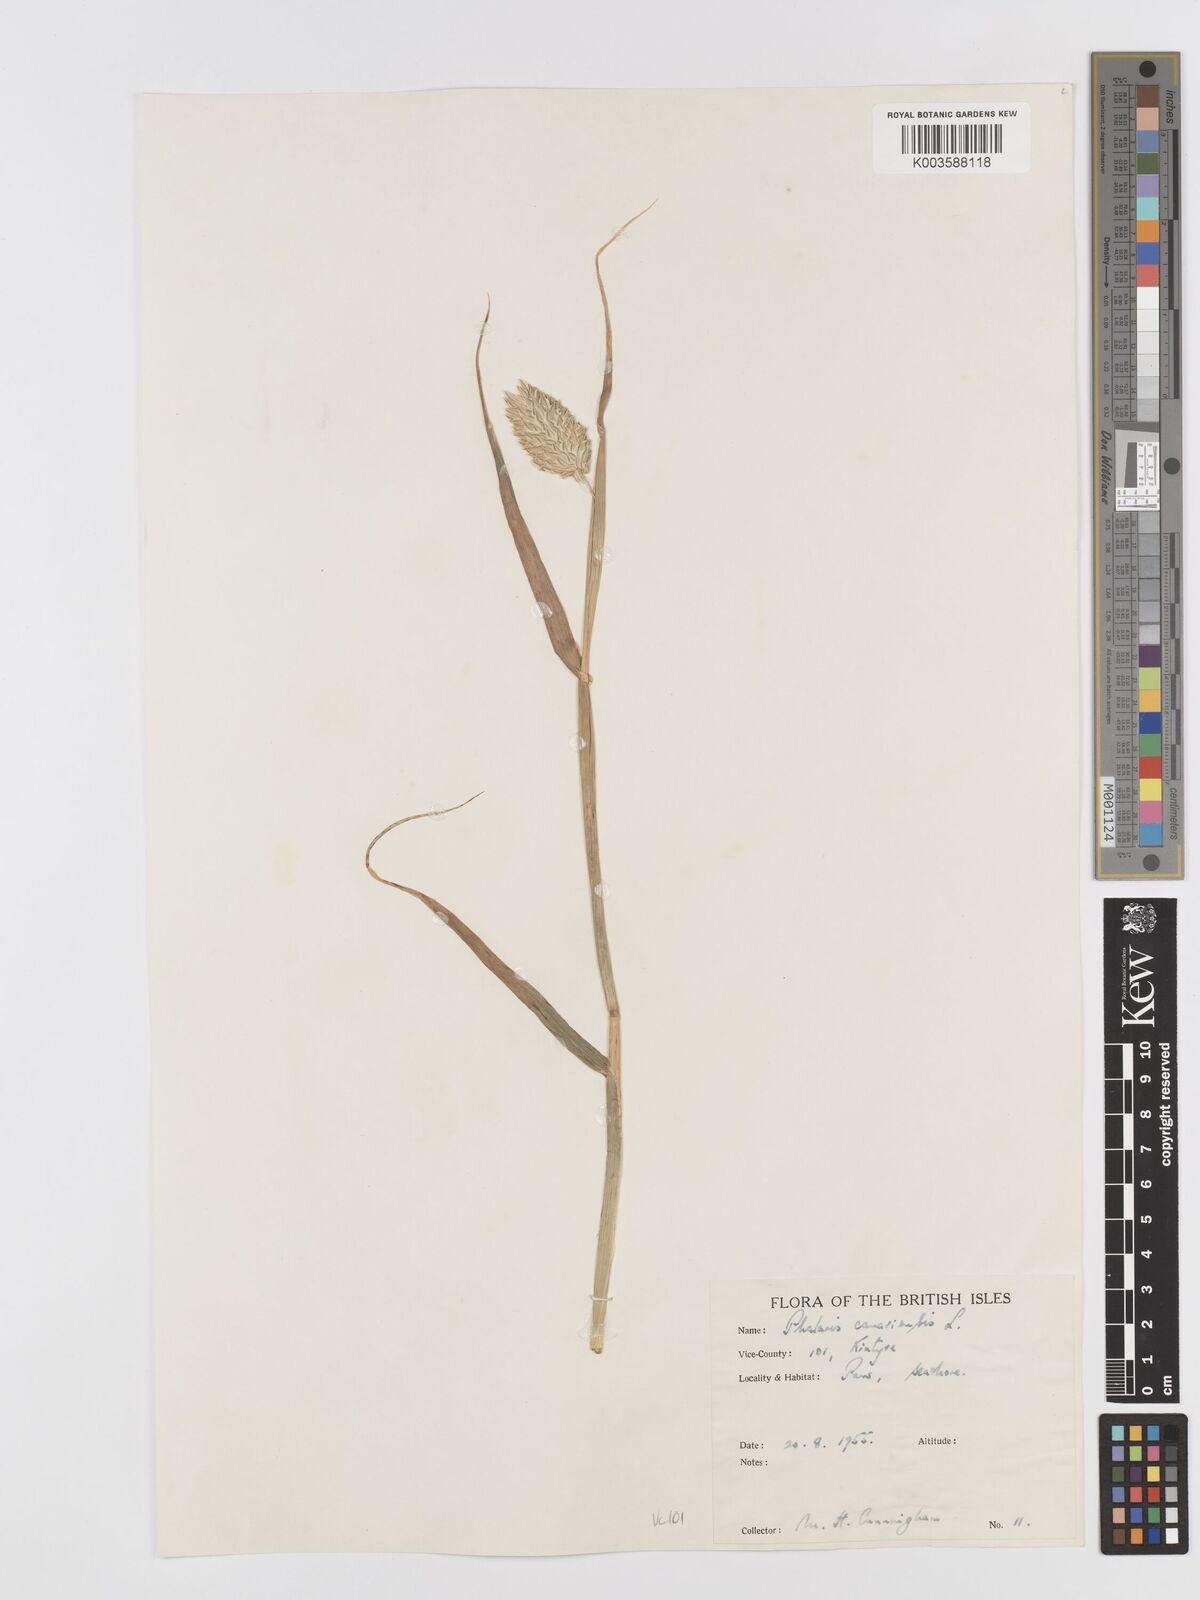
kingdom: Plantae
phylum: Tracheophyta
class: Liliopsida
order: Poales
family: Poaceae
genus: Phalaris
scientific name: Phalaris canariensis
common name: Annual canarygrass
